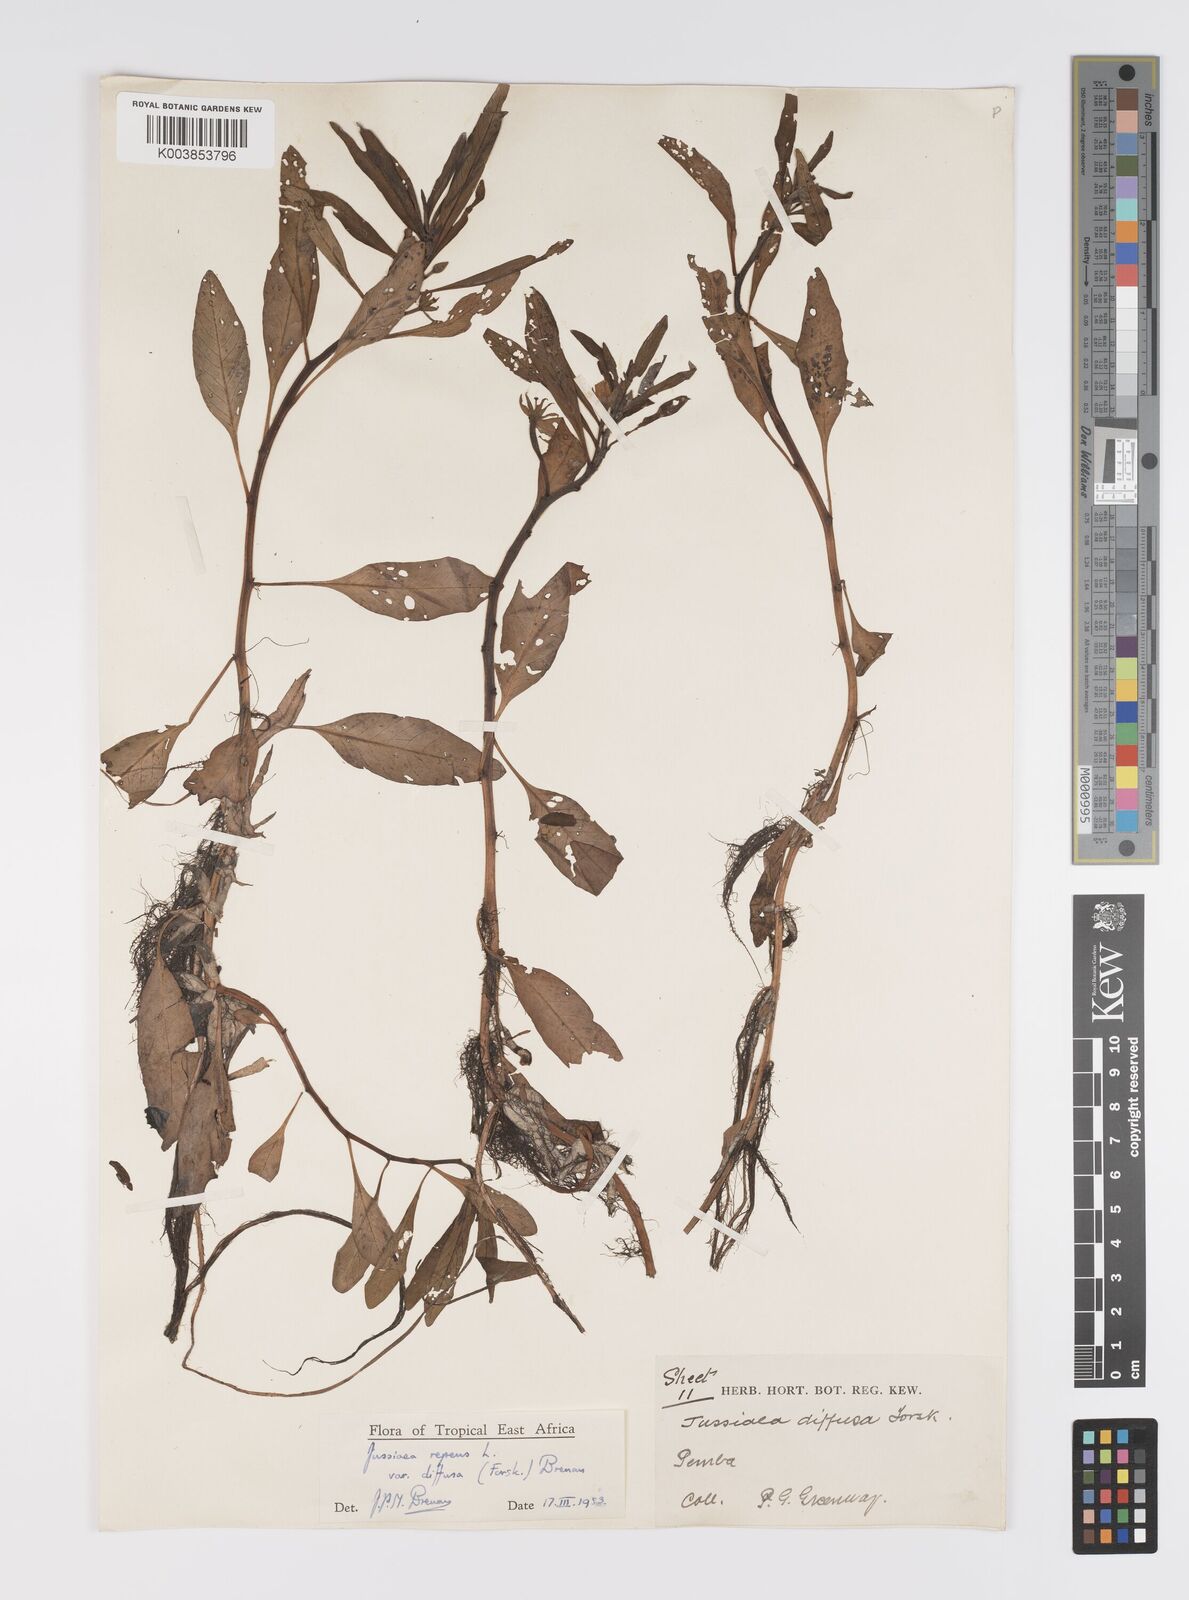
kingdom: Plantae
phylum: Tracheophyta
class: Magnoliopsida
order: Myrtales
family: Onagraceae
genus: Ludwigia
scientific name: Ludwigia repens
